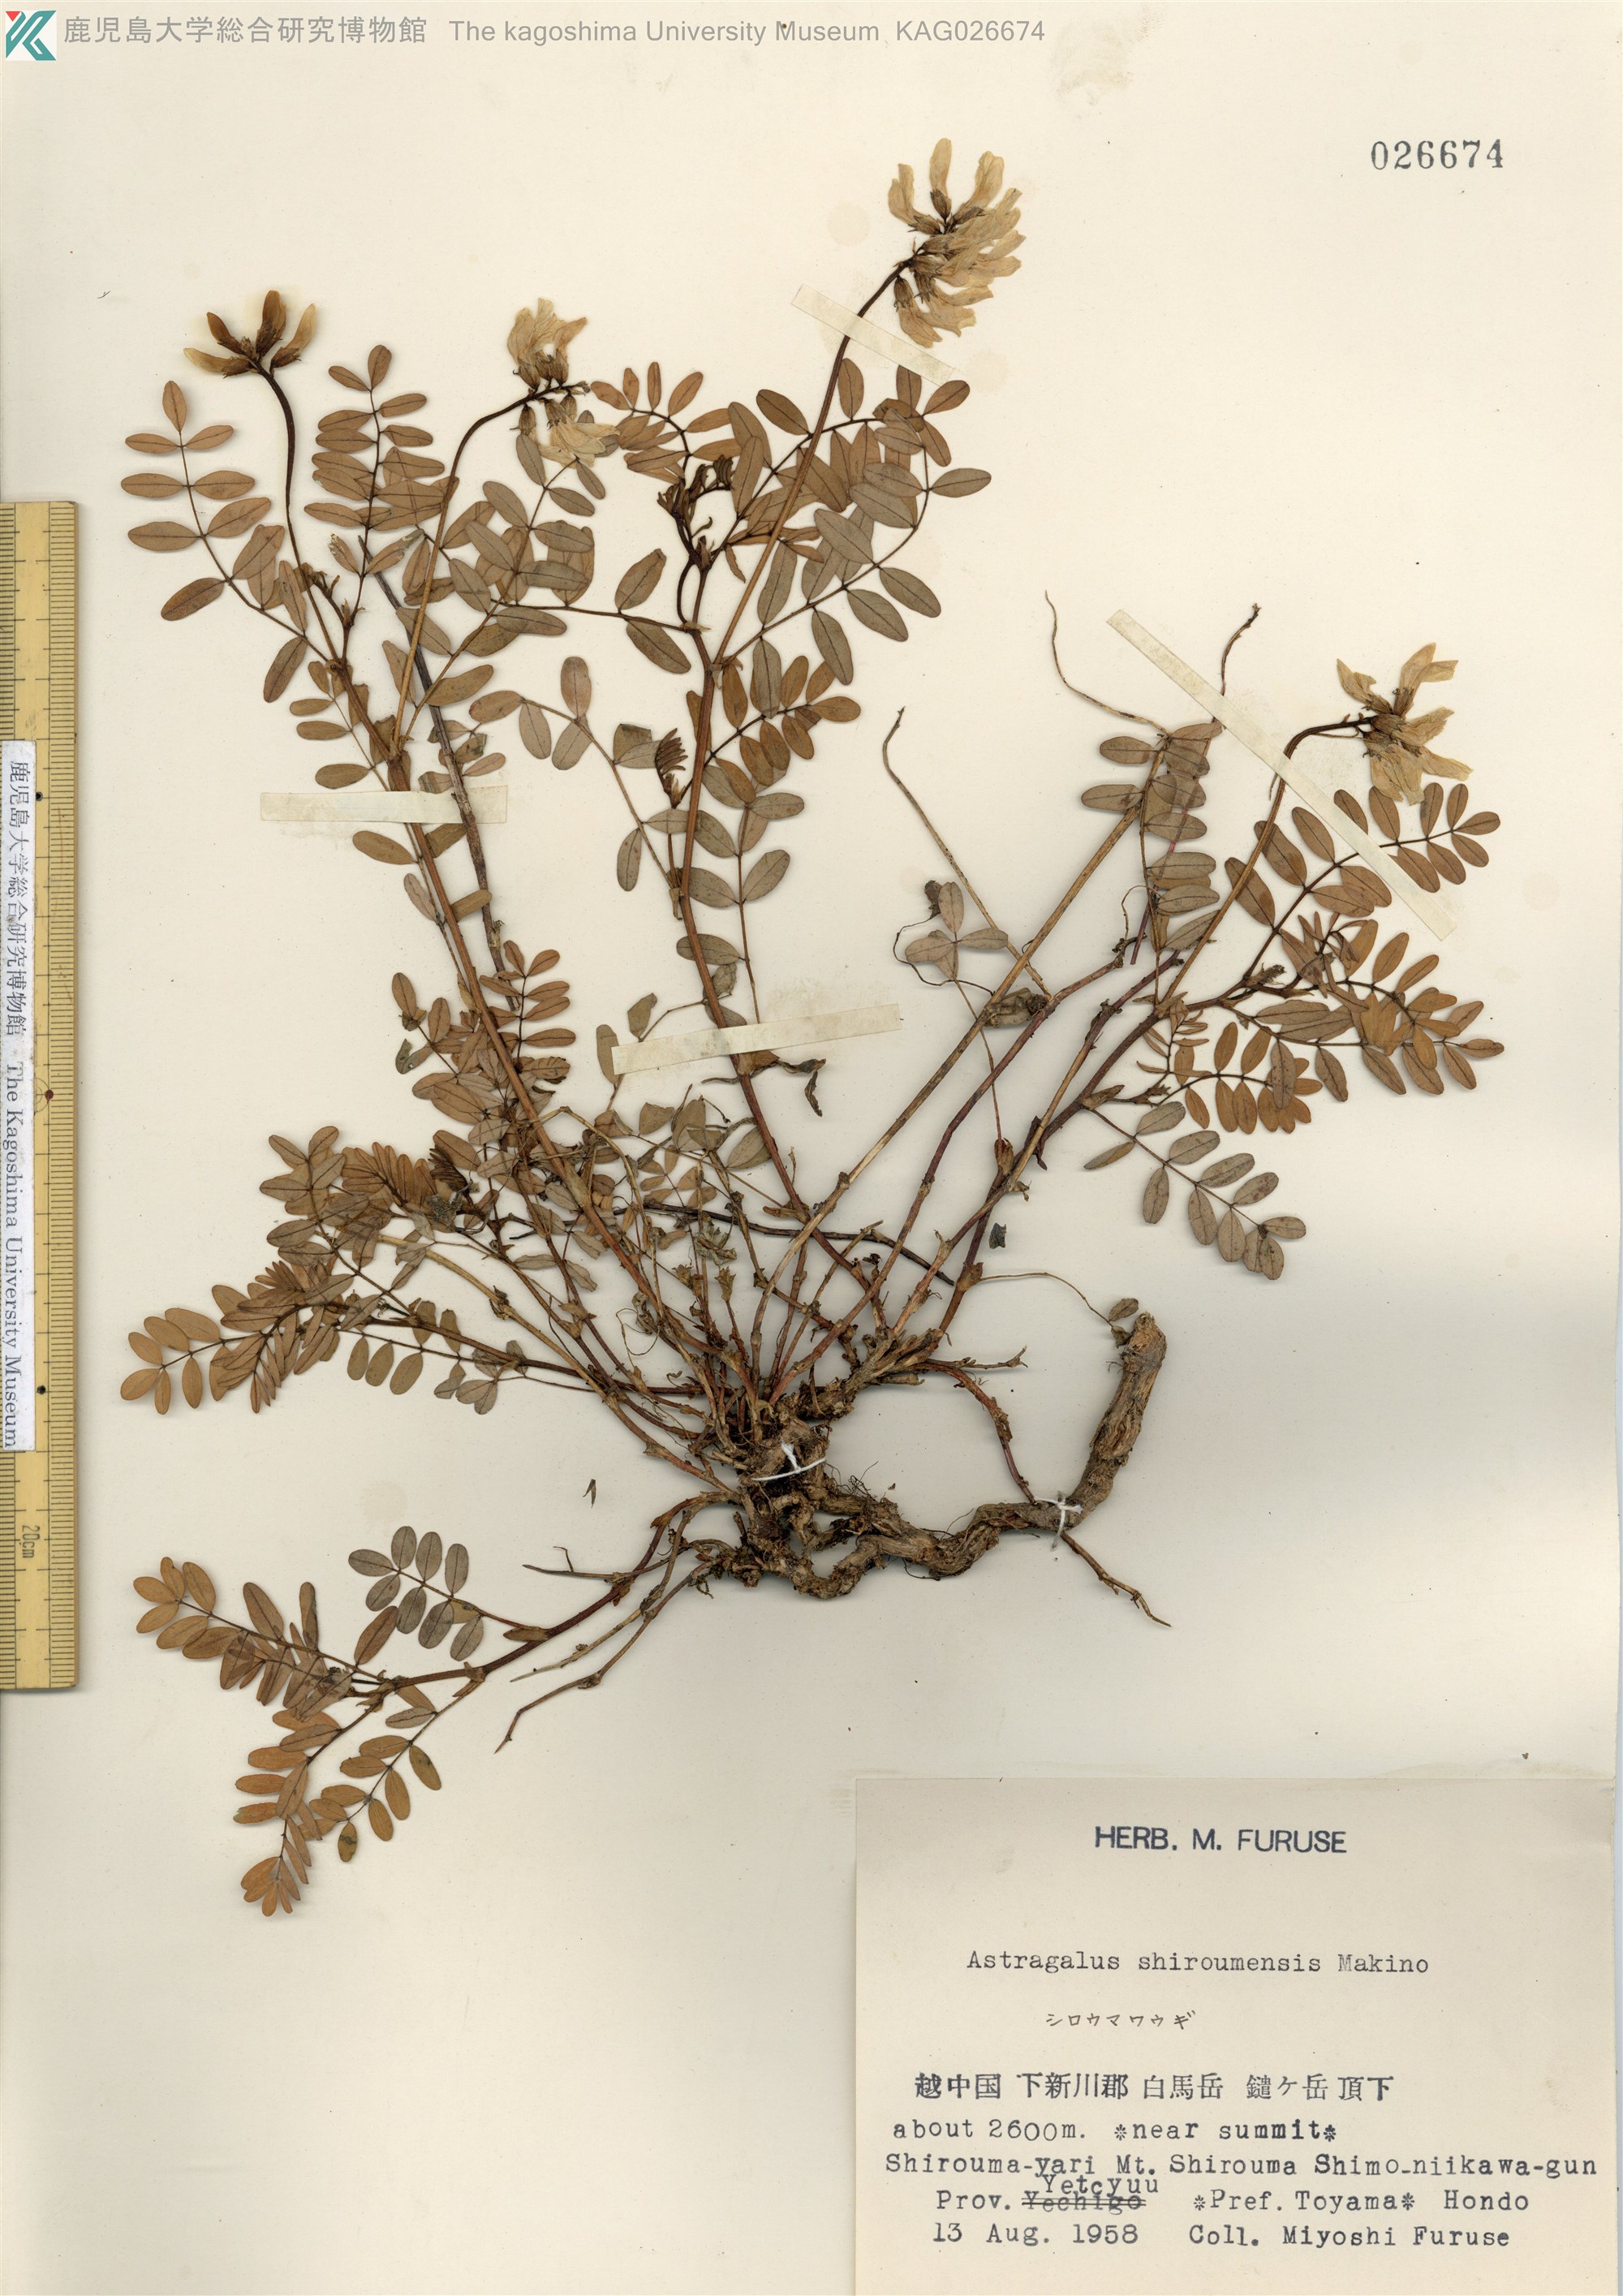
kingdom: Plantae
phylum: Tracheophyta
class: Magnoliopsida
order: Fabales
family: Fabaceae
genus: Astragalus
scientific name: Astragalus shiroumensis
